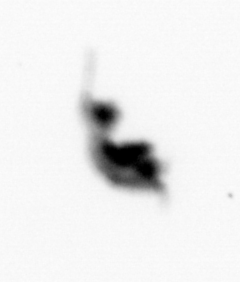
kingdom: Animalia
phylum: Arthropoda
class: Copepoda
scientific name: Copepoda
